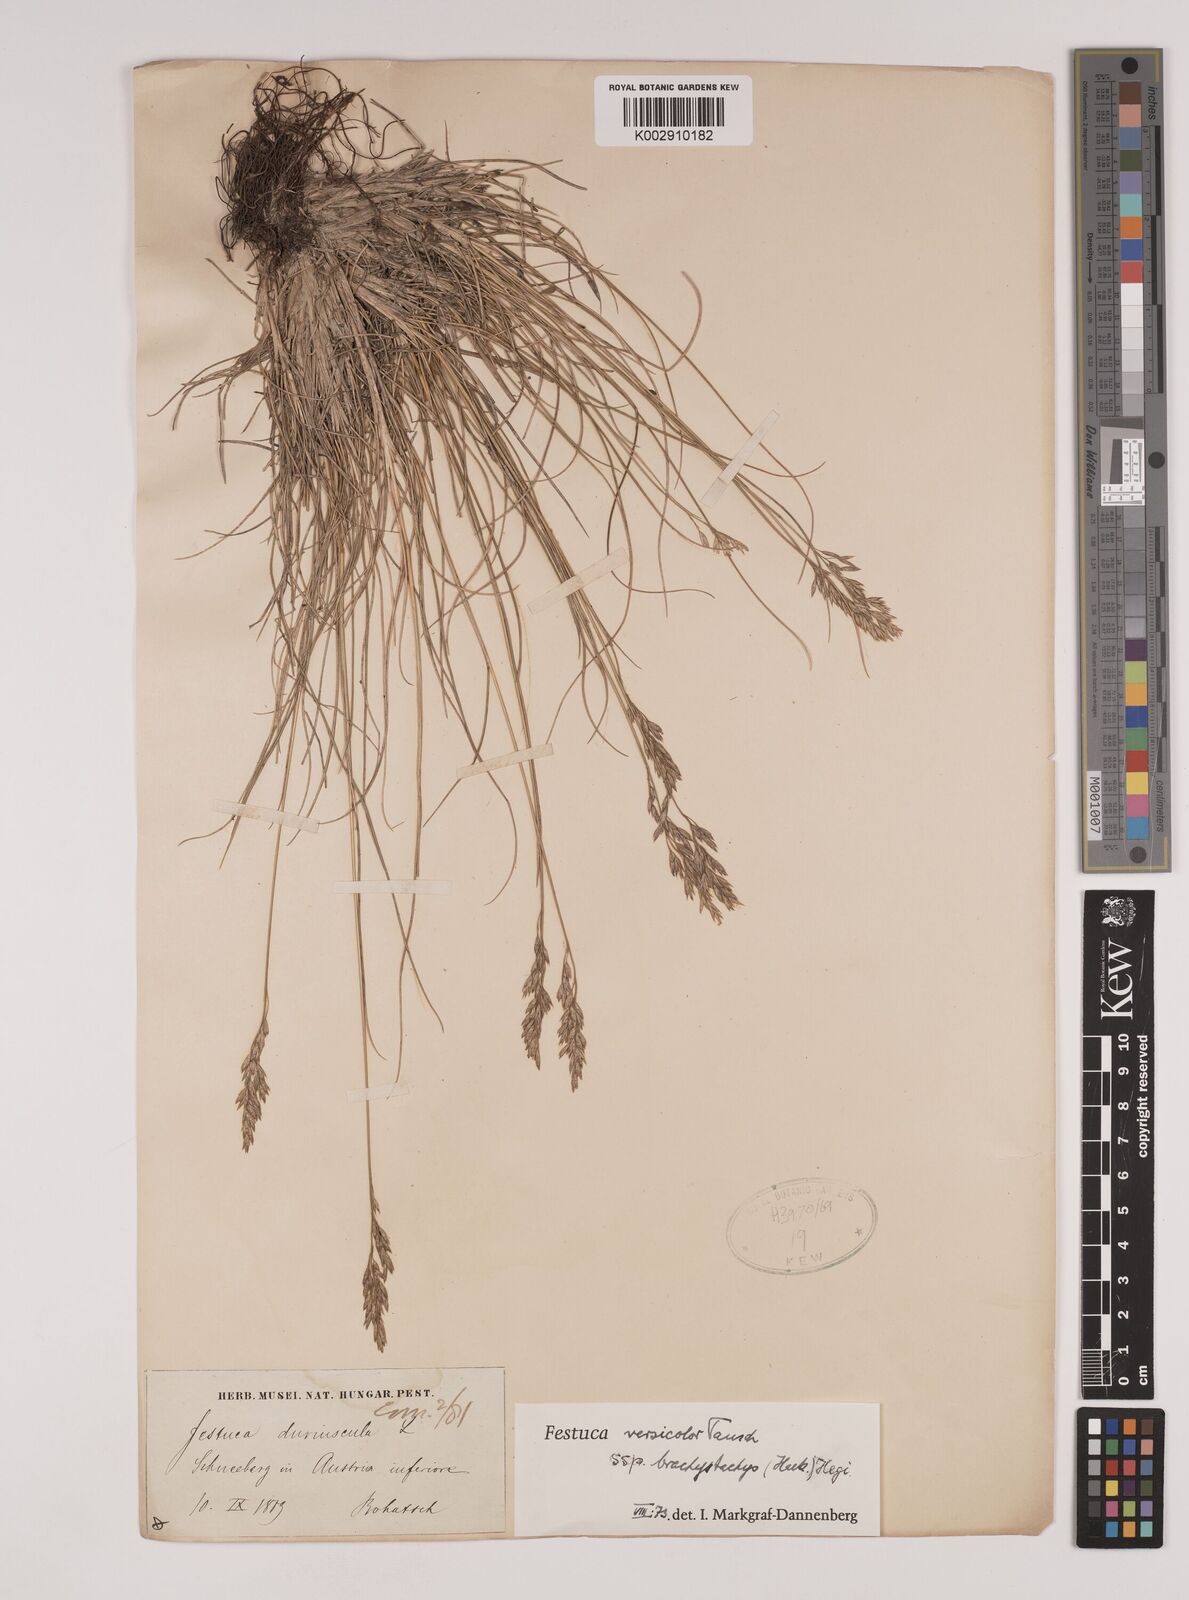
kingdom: Plantae
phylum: Tracheophyta
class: Liliopsida
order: Poales
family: Poaceae
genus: Festuca
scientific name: Festuca varia
